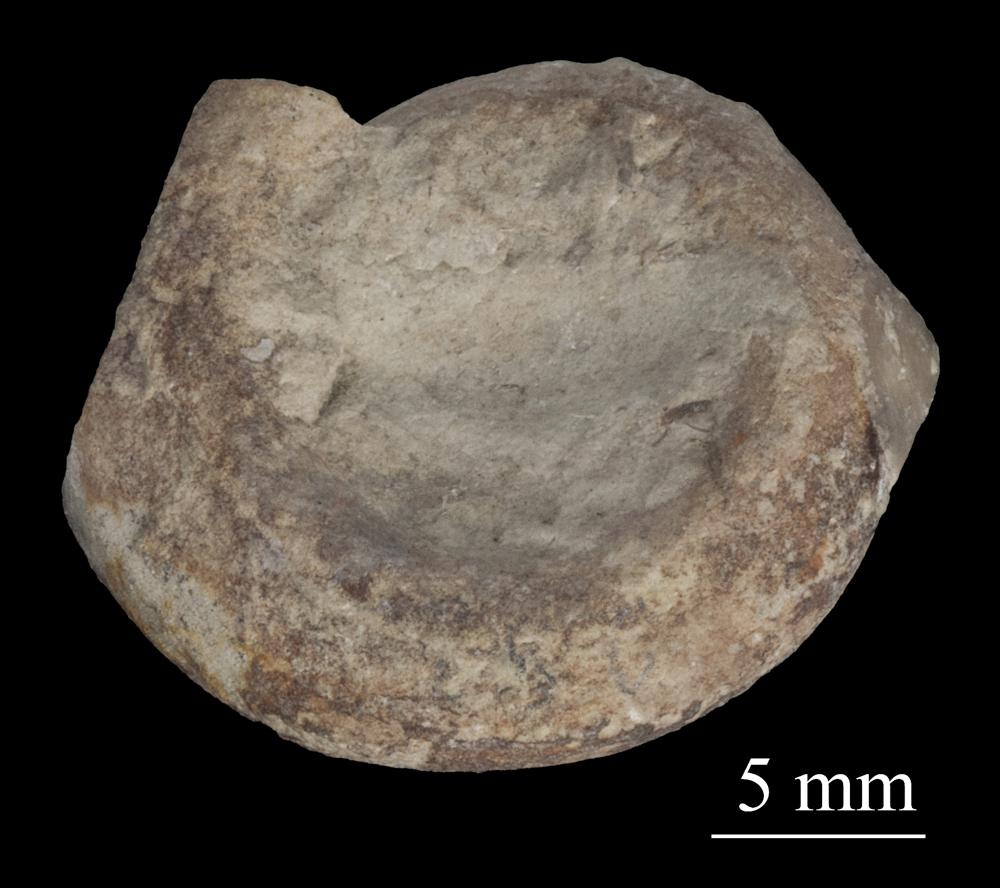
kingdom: Animalia
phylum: Mollusca
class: Gastropoda
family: Bellerophontidae
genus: Bellerophon
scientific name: Bellerophon contortus
